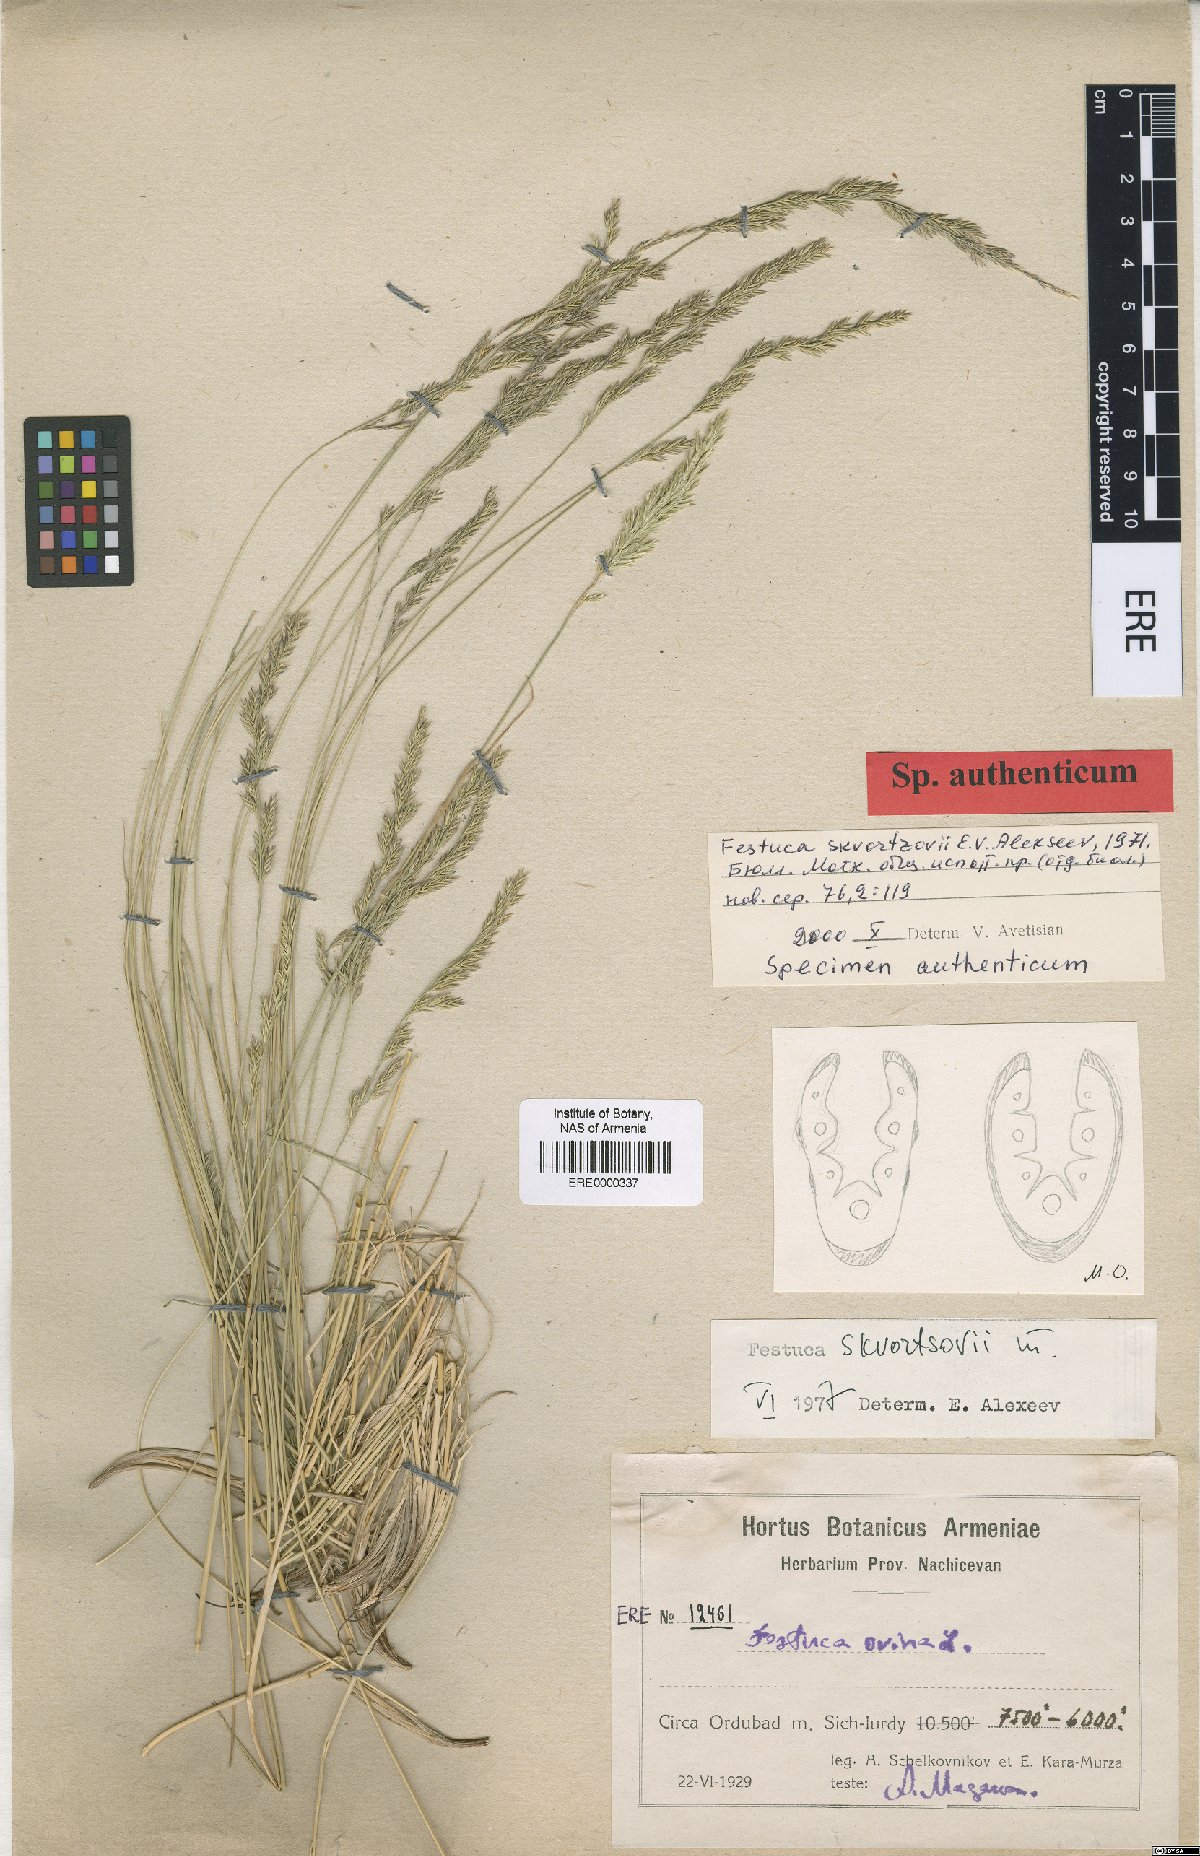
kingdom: Plantae
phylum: Tracheophyta
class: Liliopsida
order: Poales
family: Poaceae
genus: Festuca
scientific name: Festuca skvortsovii
